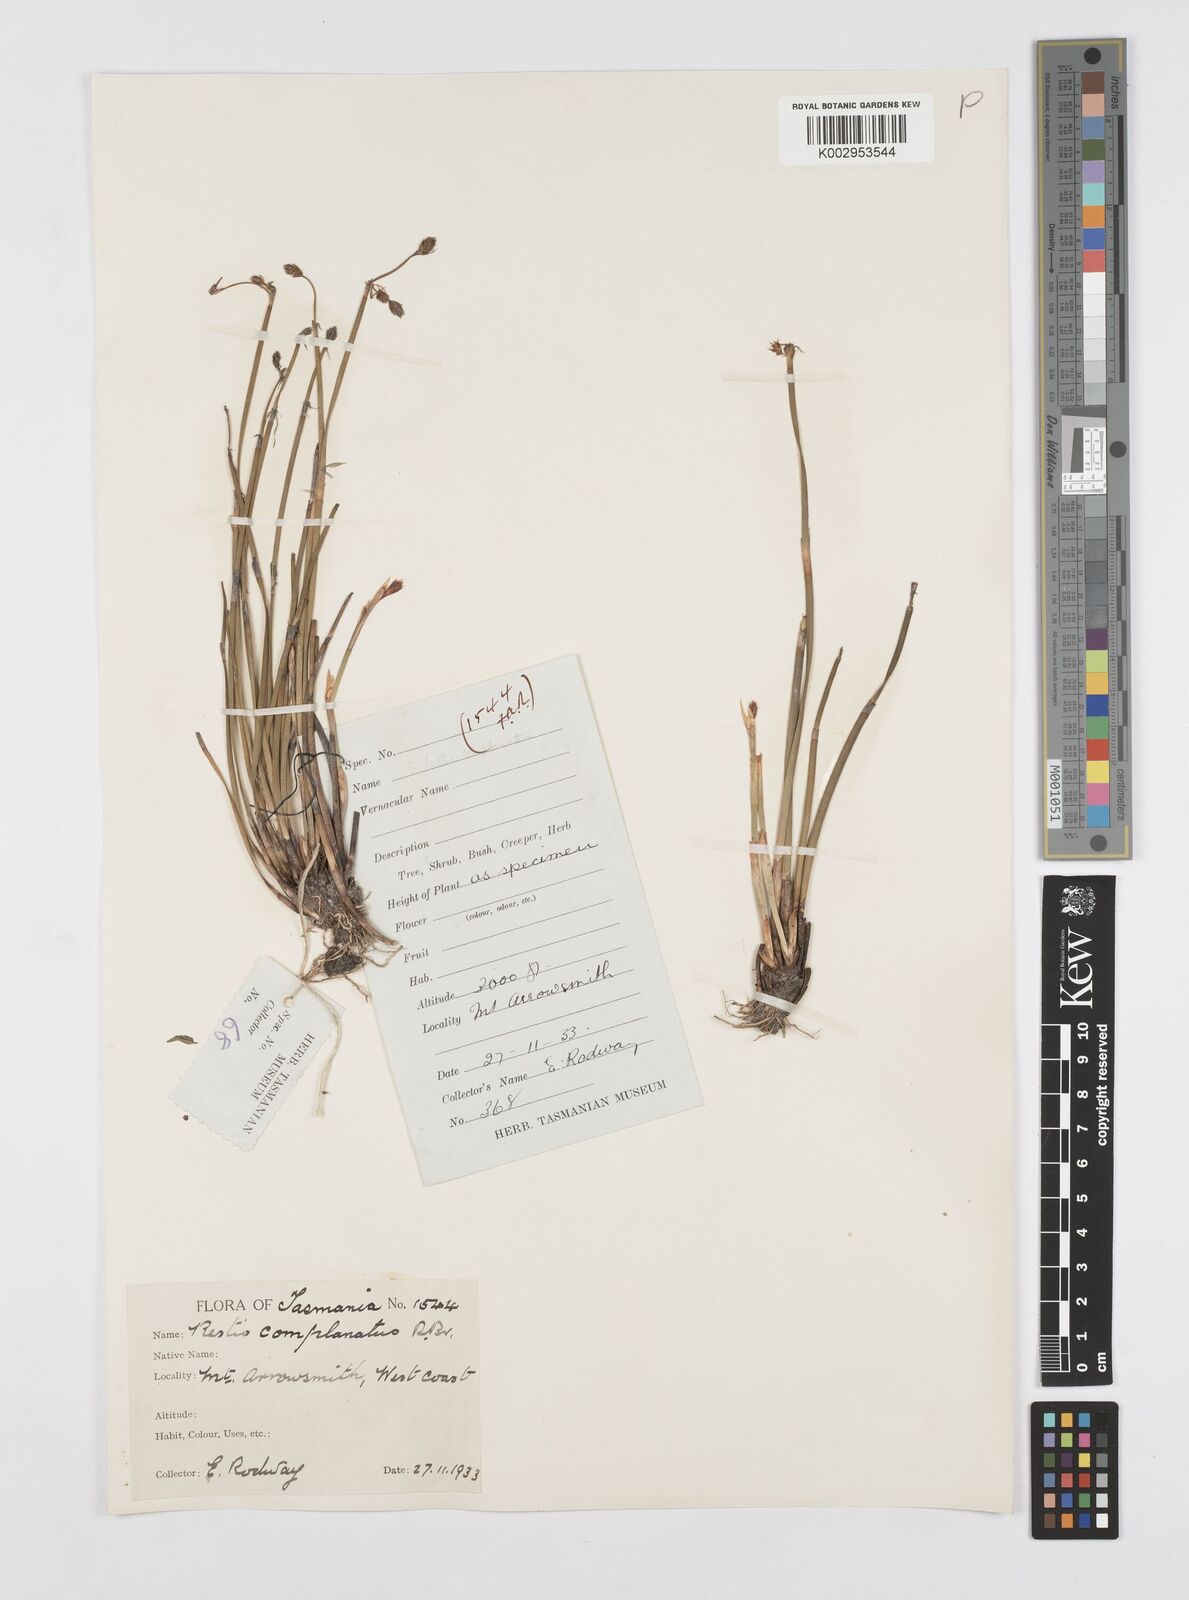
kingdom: Plantae
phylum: Tracheophyta
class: Liliopsida
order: Poales
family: Restionaceae
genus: Eurychorda
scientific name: Eurychorda complanata
